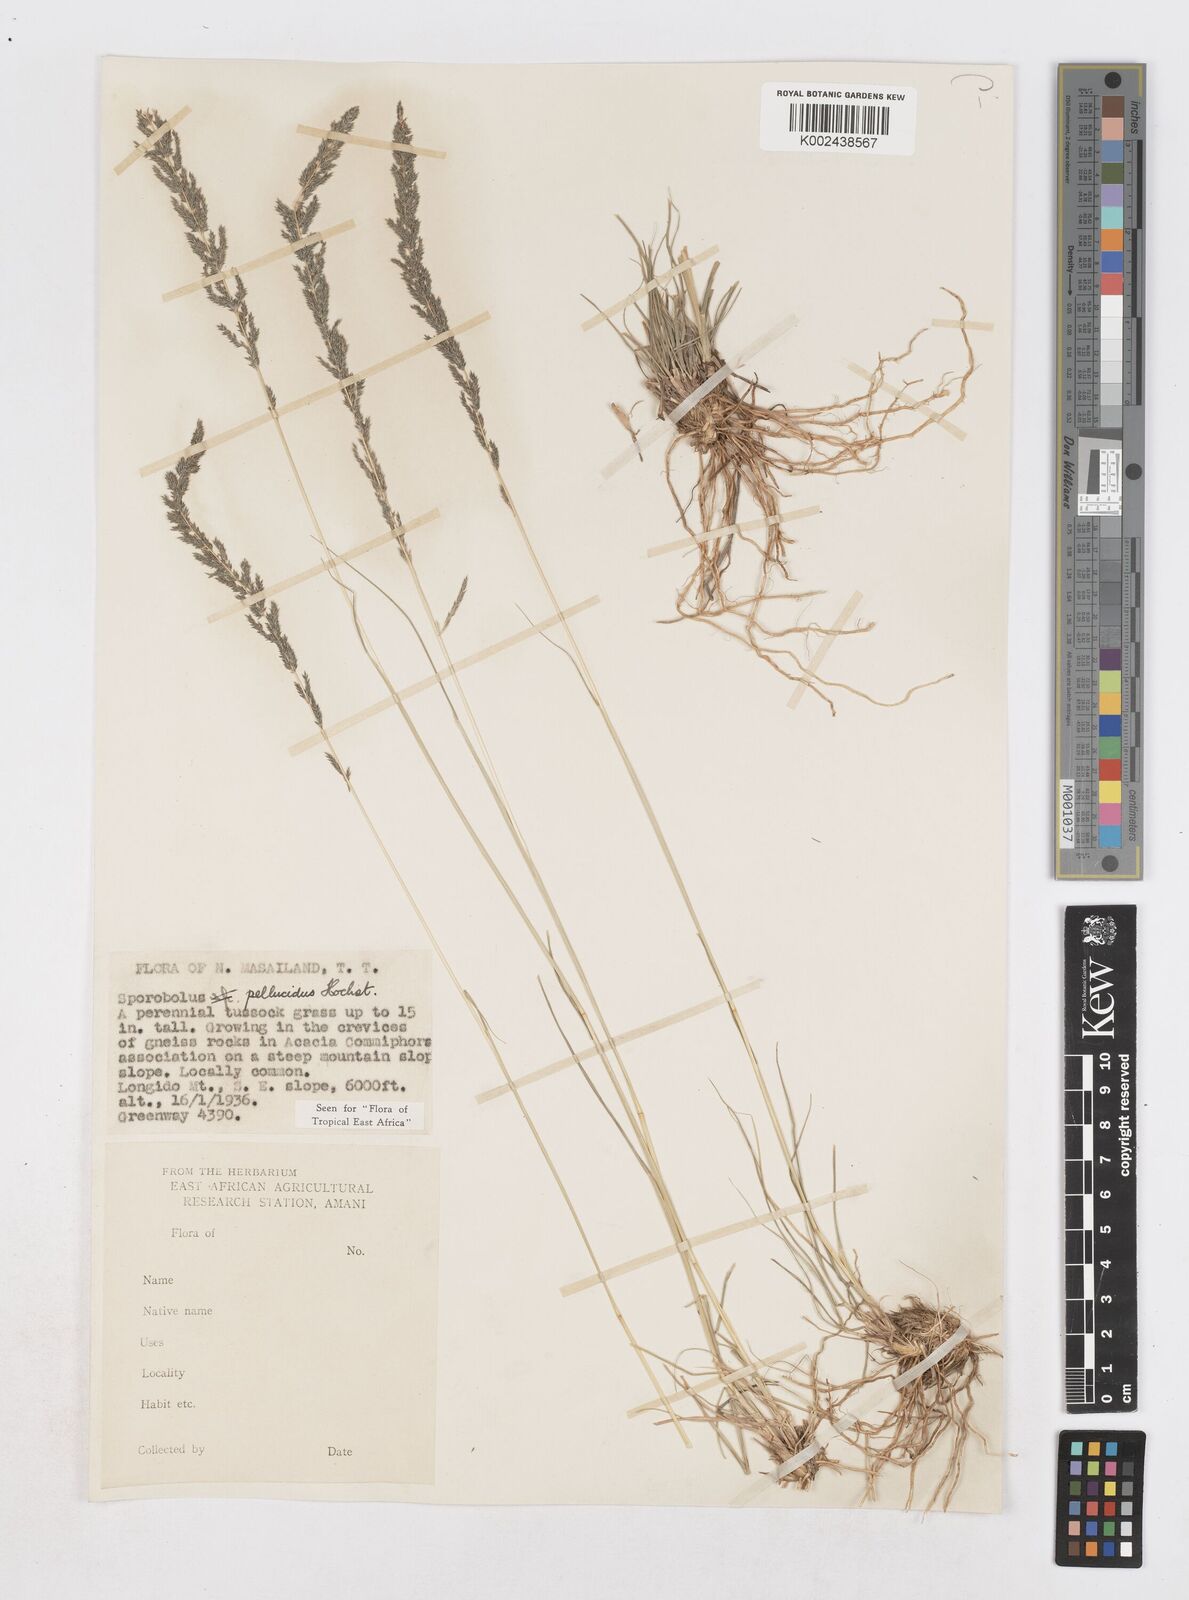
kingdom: Plantae
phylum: Tracheophyta
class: Liliopsida
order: Poales
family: Poaceae
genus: Sporobolus
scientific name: Sporobolus pellucidus
